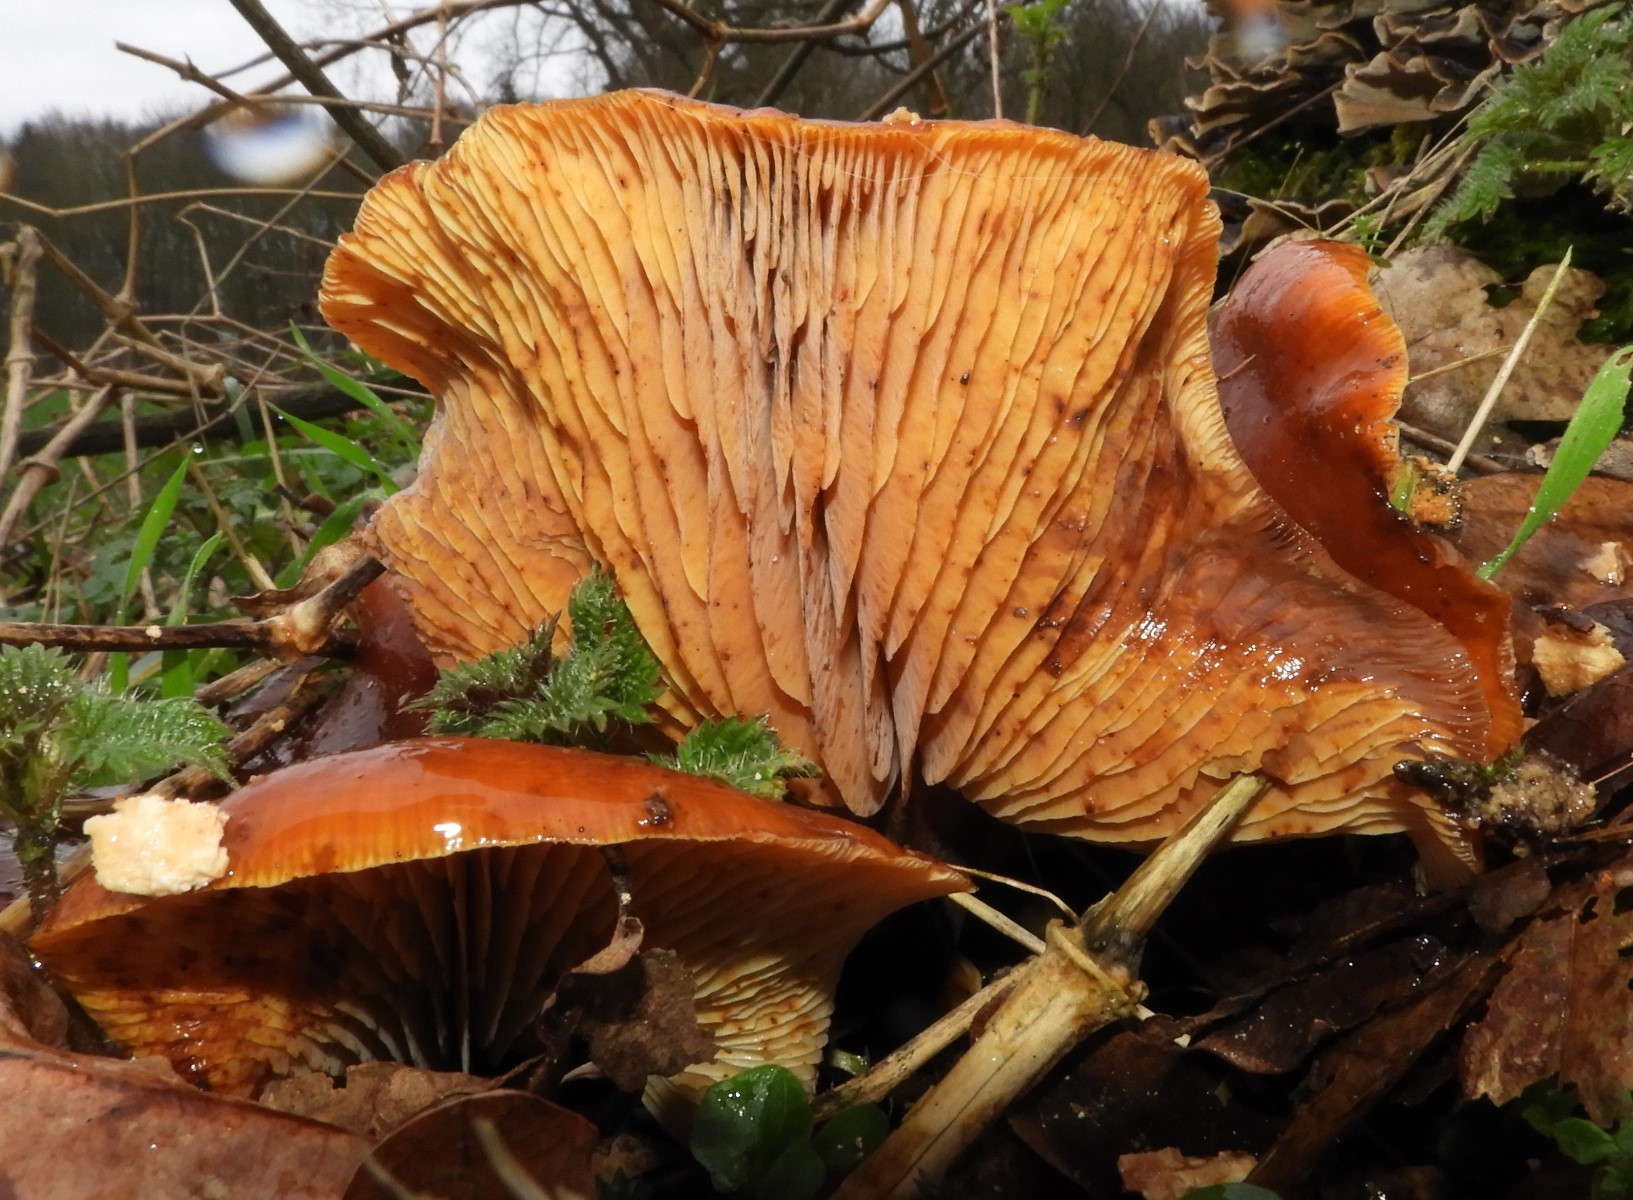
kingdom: Fungi
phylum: Basidiomycota
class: Agaricomycetes
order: Agaricales
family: Physalacriaceae
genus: Flammulina
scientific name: Flammulina
